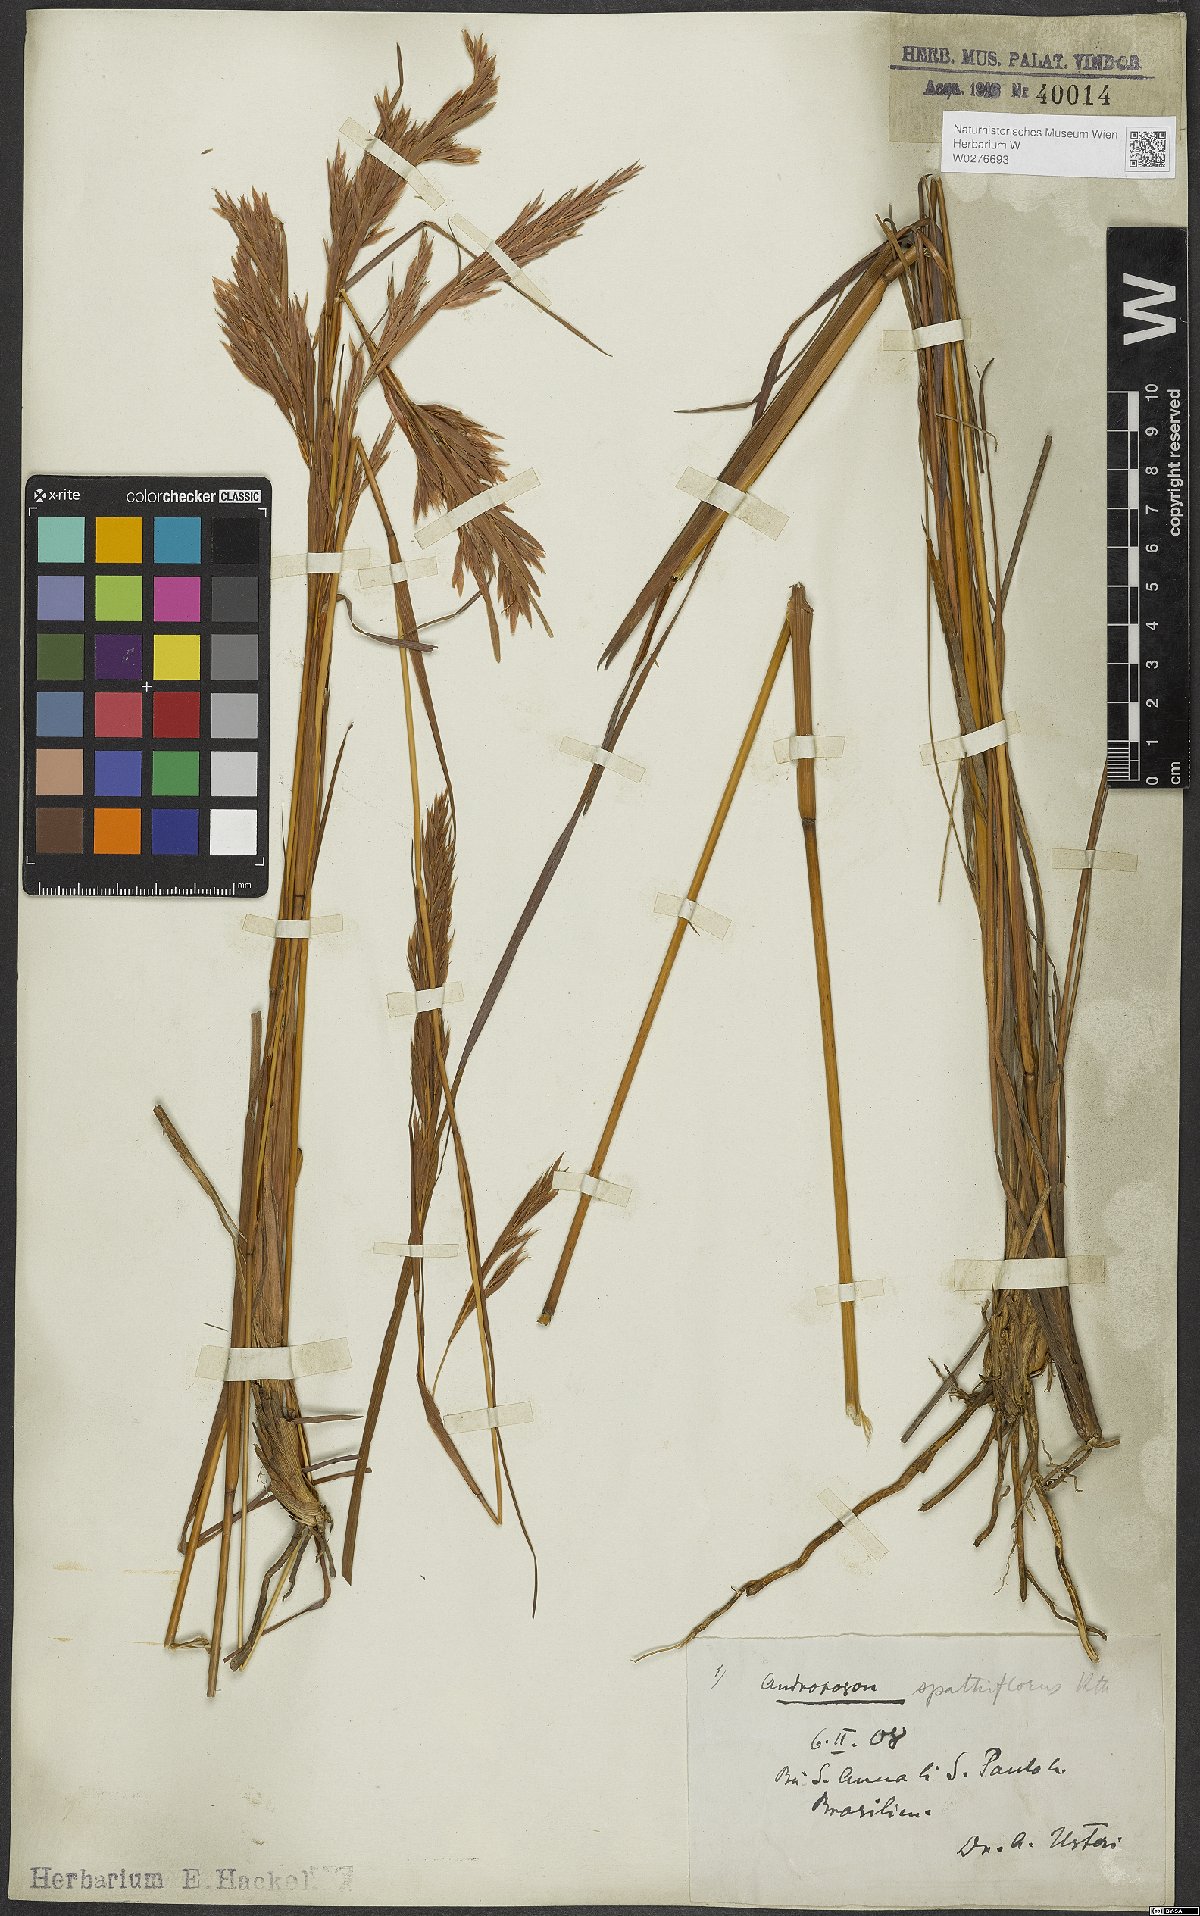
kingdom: Plantae
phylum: Tracheophyta
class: Liliopsida
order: Poales
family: Poaceae
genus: Andropogon
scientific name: Andropogon virgatus
